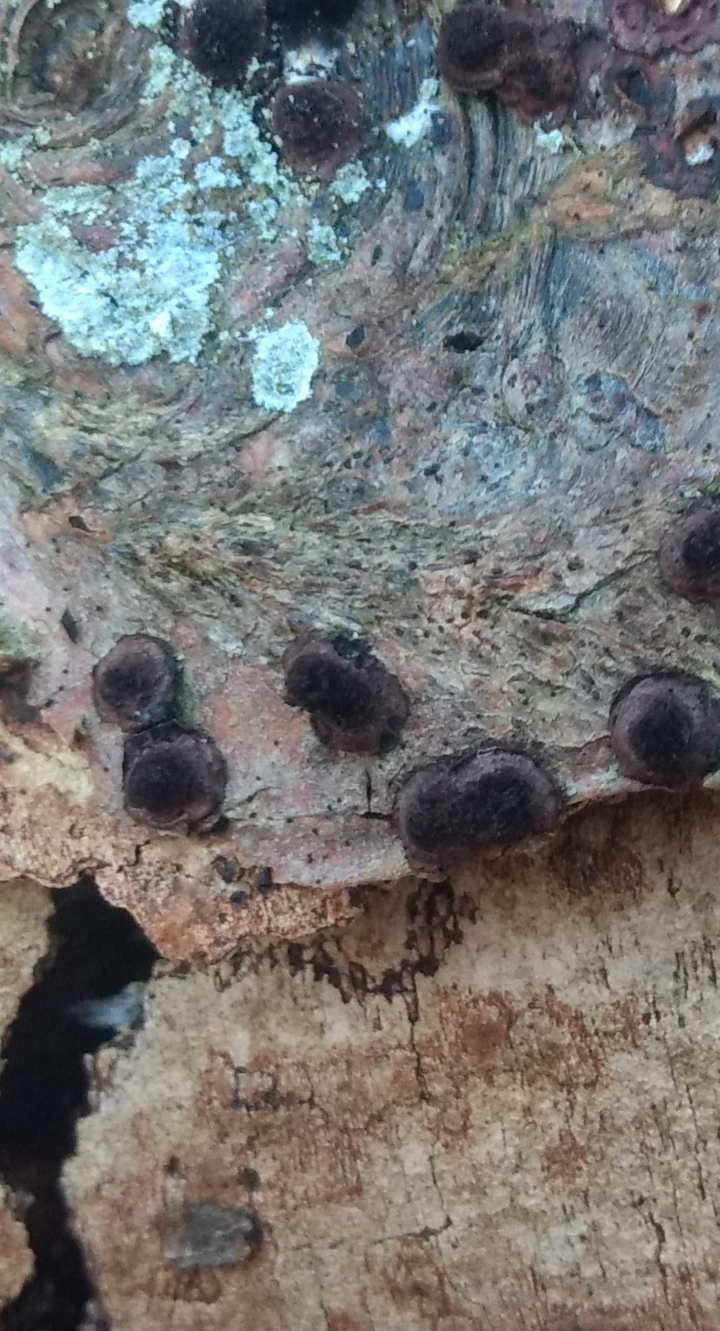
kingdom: Fungi
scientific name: Fungi
